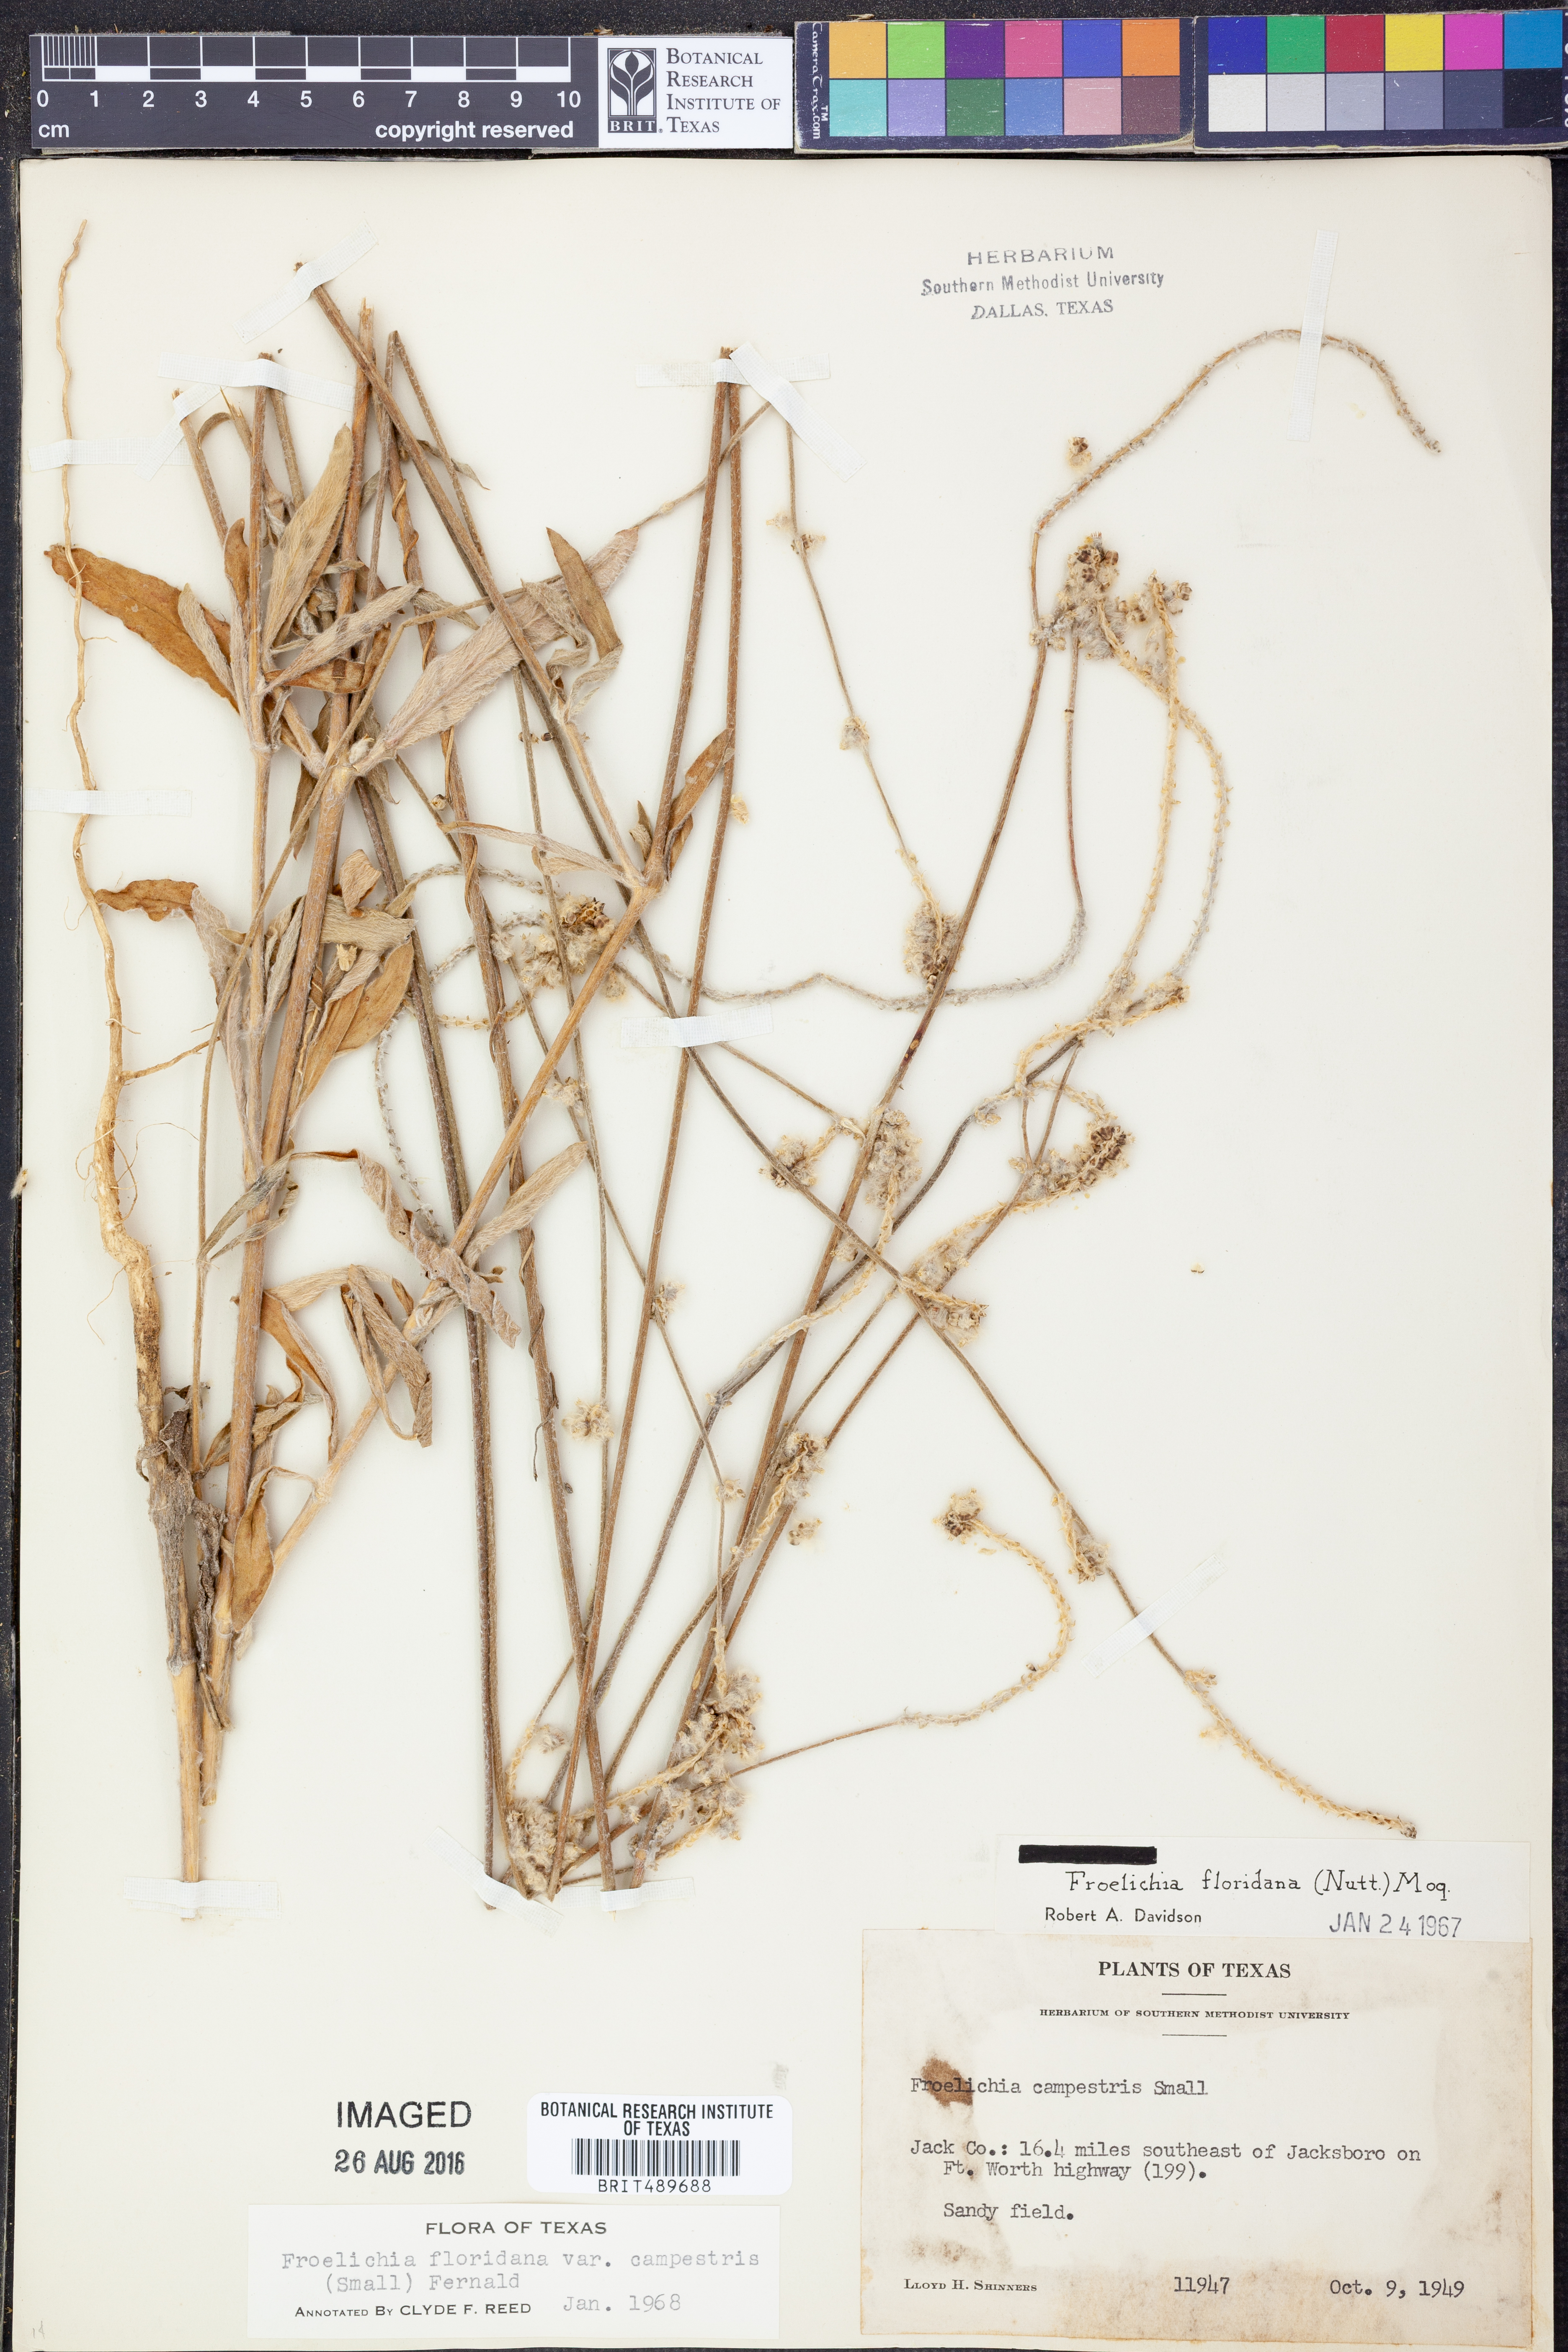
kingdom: Plantae
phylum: Tracheophyta
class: Magnoliopsida
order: Caryophyllales
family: Amaranthaceae
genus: Froelichia
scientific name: Froelichia floridana
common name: Florida snake-cotton
